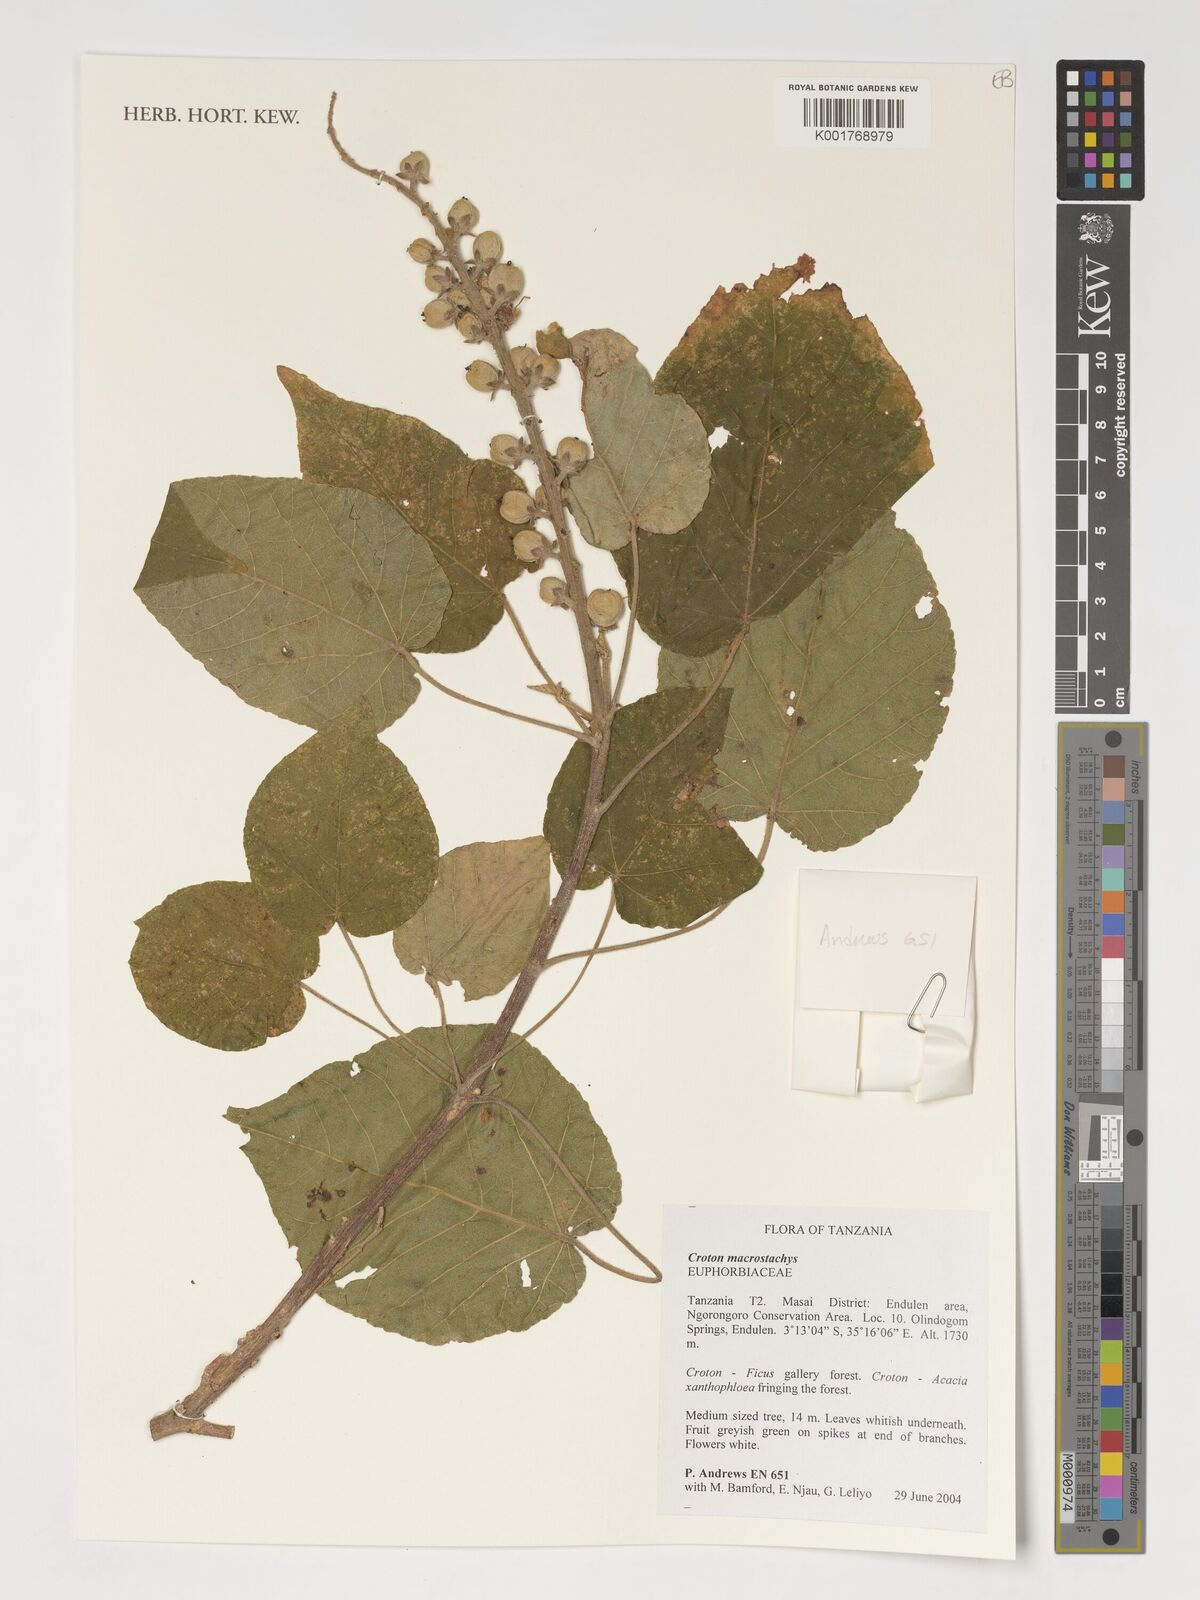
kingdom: Plantae
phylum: Tracheophyta
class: Magnoliopsida
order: Malpighiales
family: Euphorbiaceae
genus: Croton
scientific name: Croton macrostachyus
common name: Mutundu
